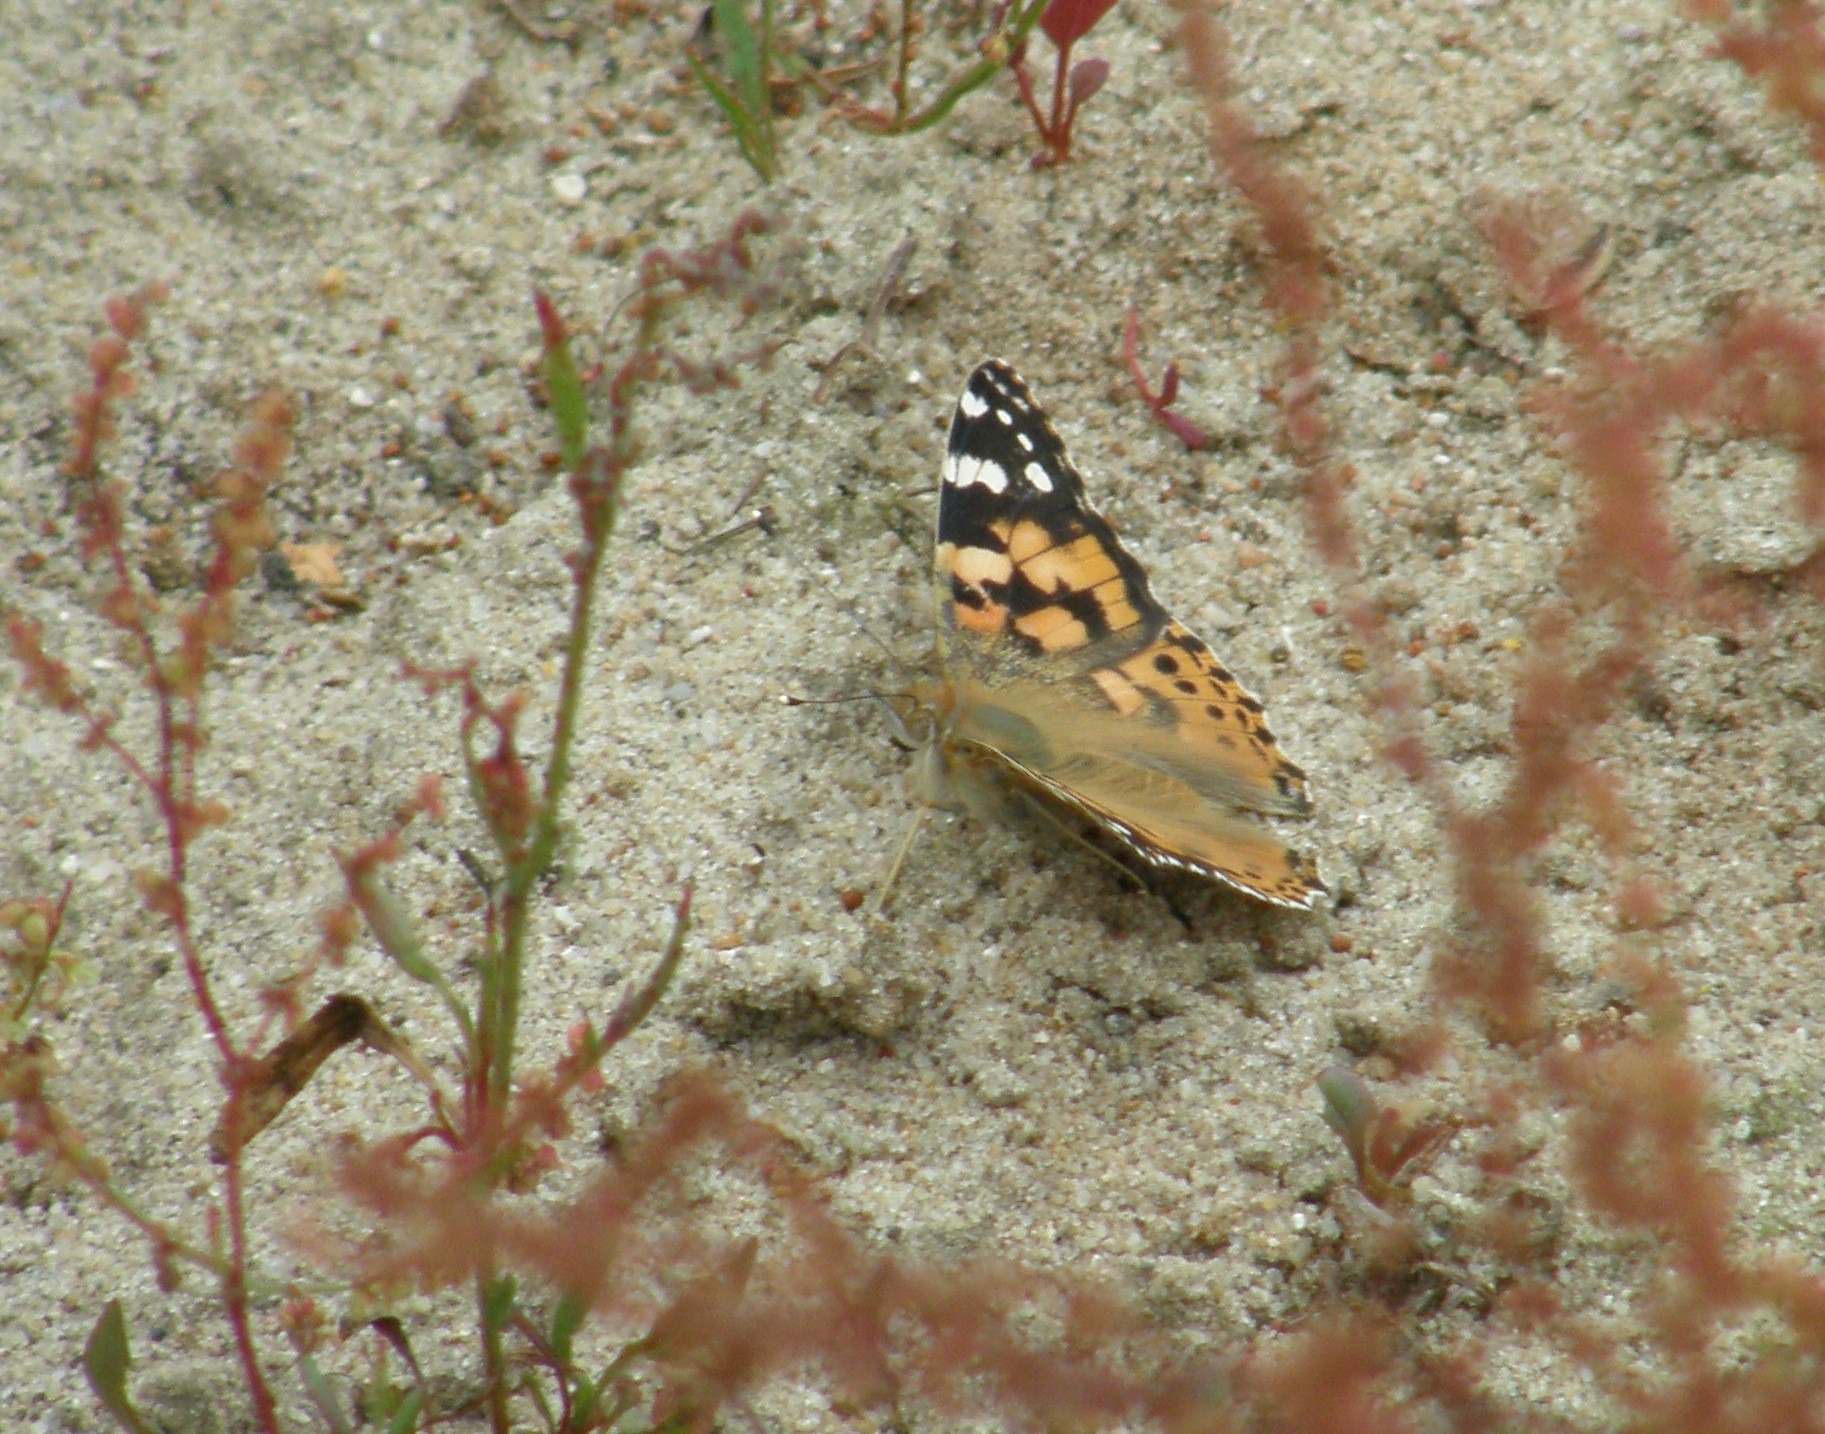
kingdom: Animalia
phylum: Arthropoda
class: Insecta
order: Lepidoptera
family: Nymphalidae
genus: Vanessa
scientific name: Vanessa cardui
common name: Tidselsommerfugl
